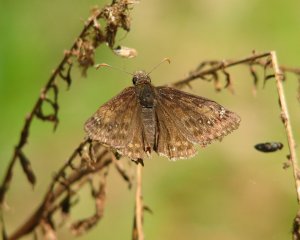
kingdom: Animalia
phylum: Arthropoda
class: Insecta
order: Lepidoptera
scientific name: Lepidoptera
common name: Butterflies
